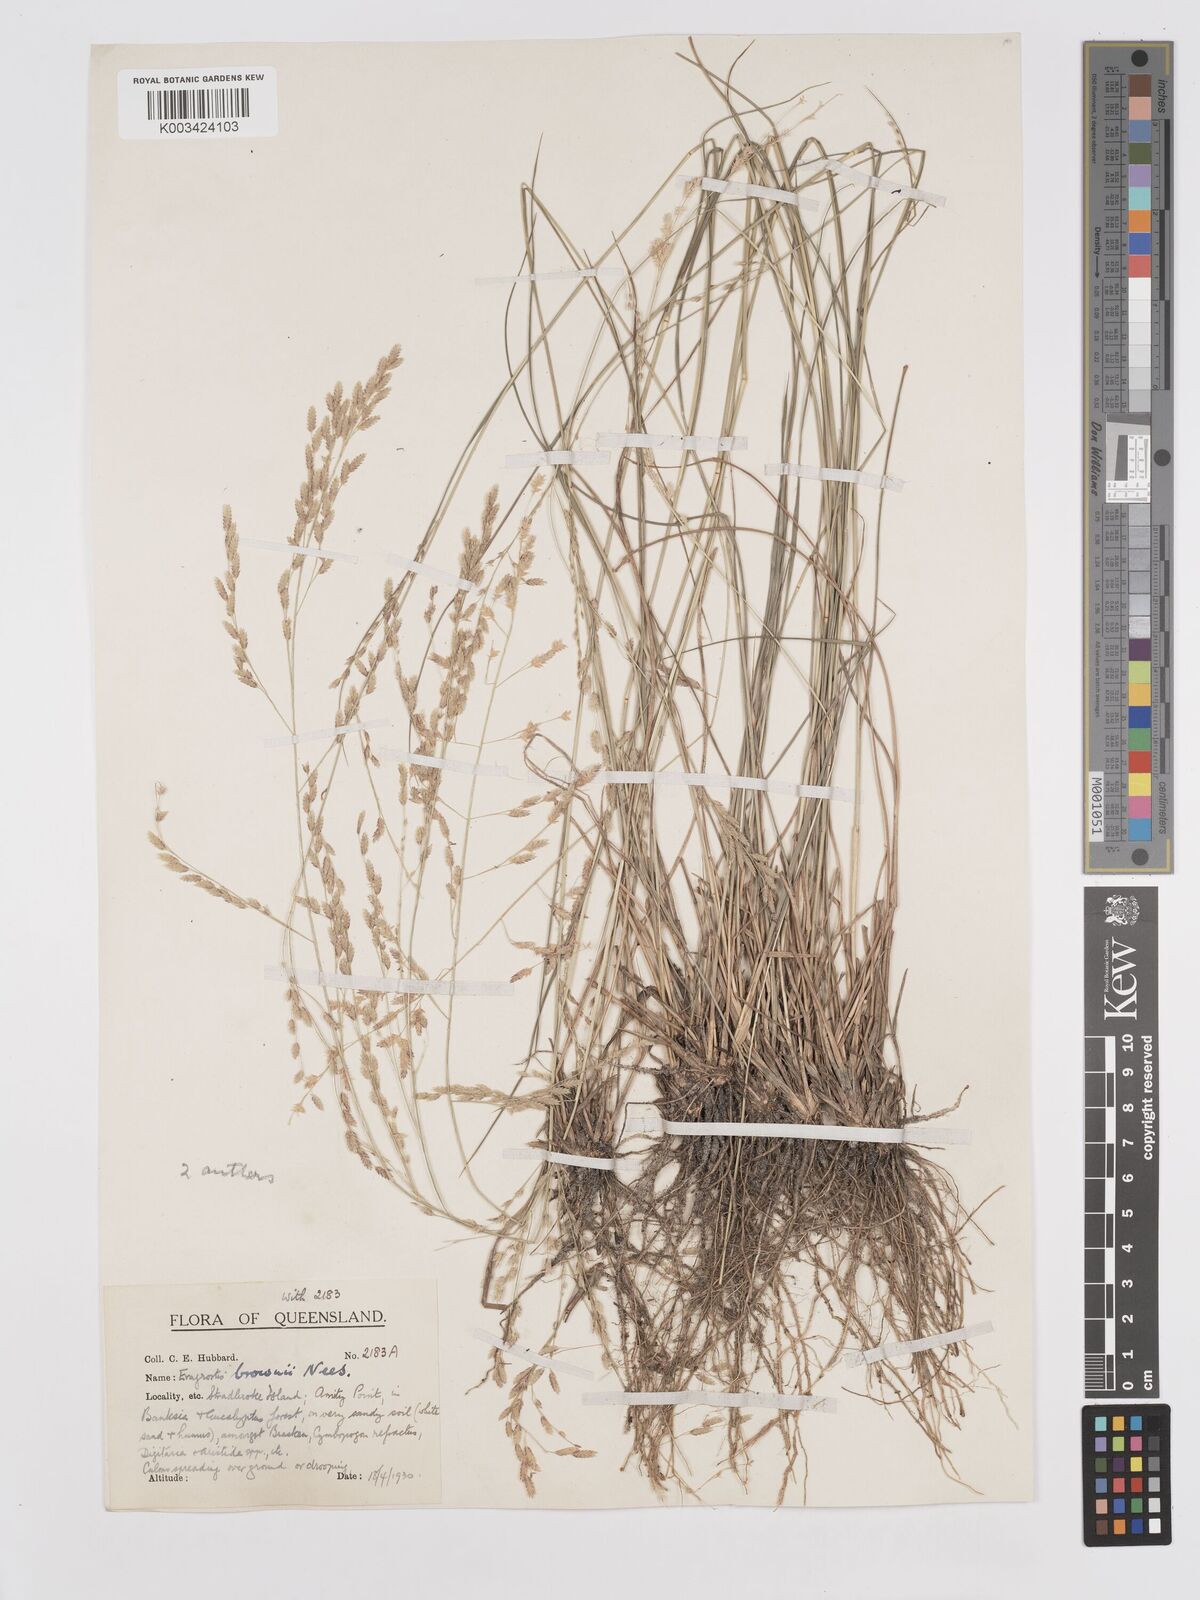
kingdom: Plantae
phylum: Tracheophyta
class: Liliopsida
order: Poales
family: Poaceae
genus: Eragrostis
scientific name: Eragrostis brownii
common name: Lovegrass
